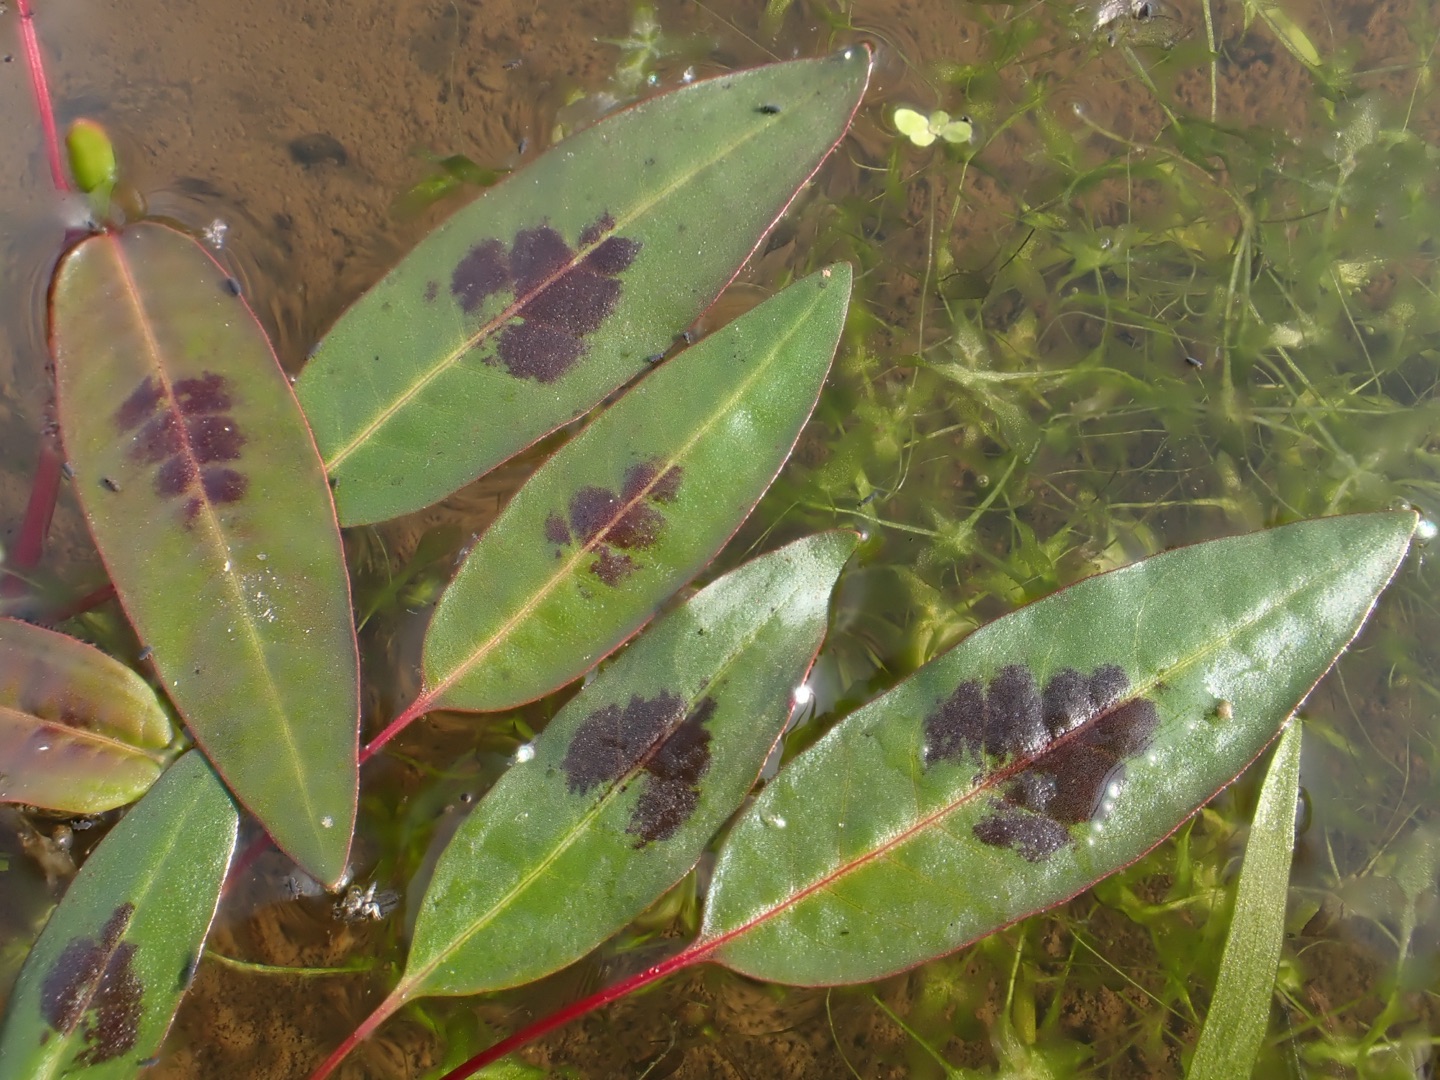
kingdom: Plantae
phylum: Tracheophyta
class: Magnoliopsida
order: Caryophyllales
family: Polygonaceae
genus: Persicaria
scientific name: Persicaria amphibia
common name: Vand-pileurt
